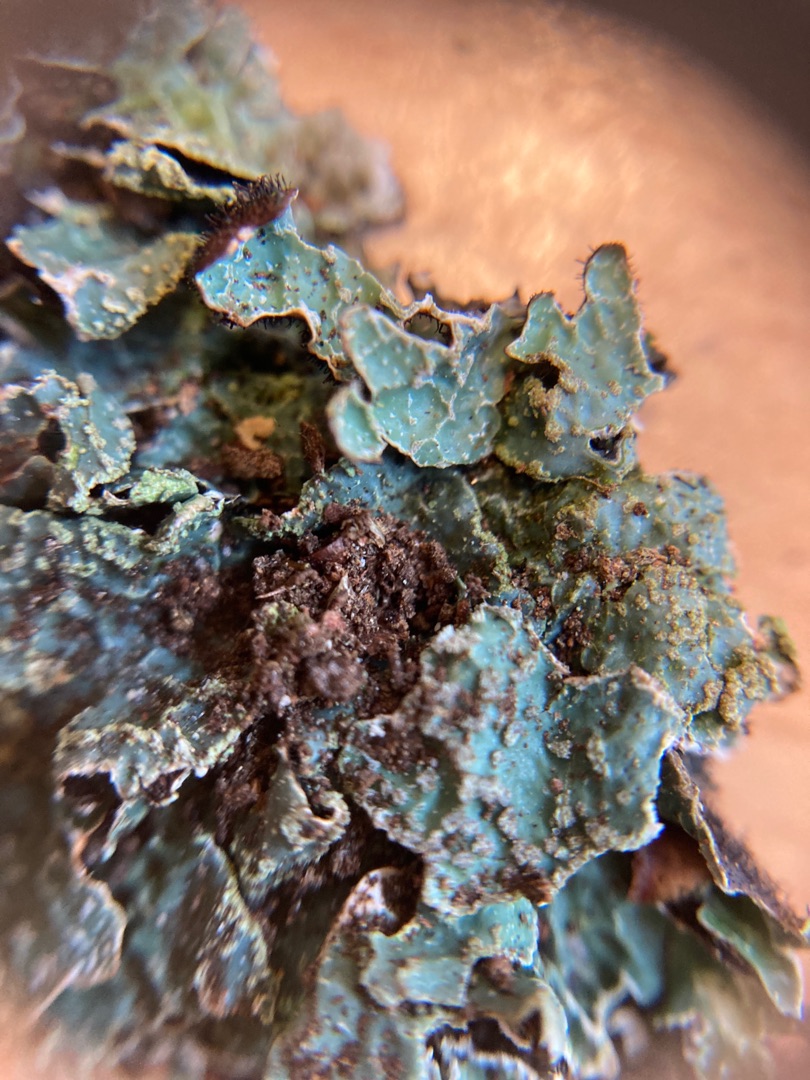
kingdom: Fungi
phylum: Ascomycota
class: Lecanoromycetes
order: Lecanorales
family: Parmeliaceae
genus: Parmelia
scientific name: Parmelia sulcata
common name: Rynket skållav
